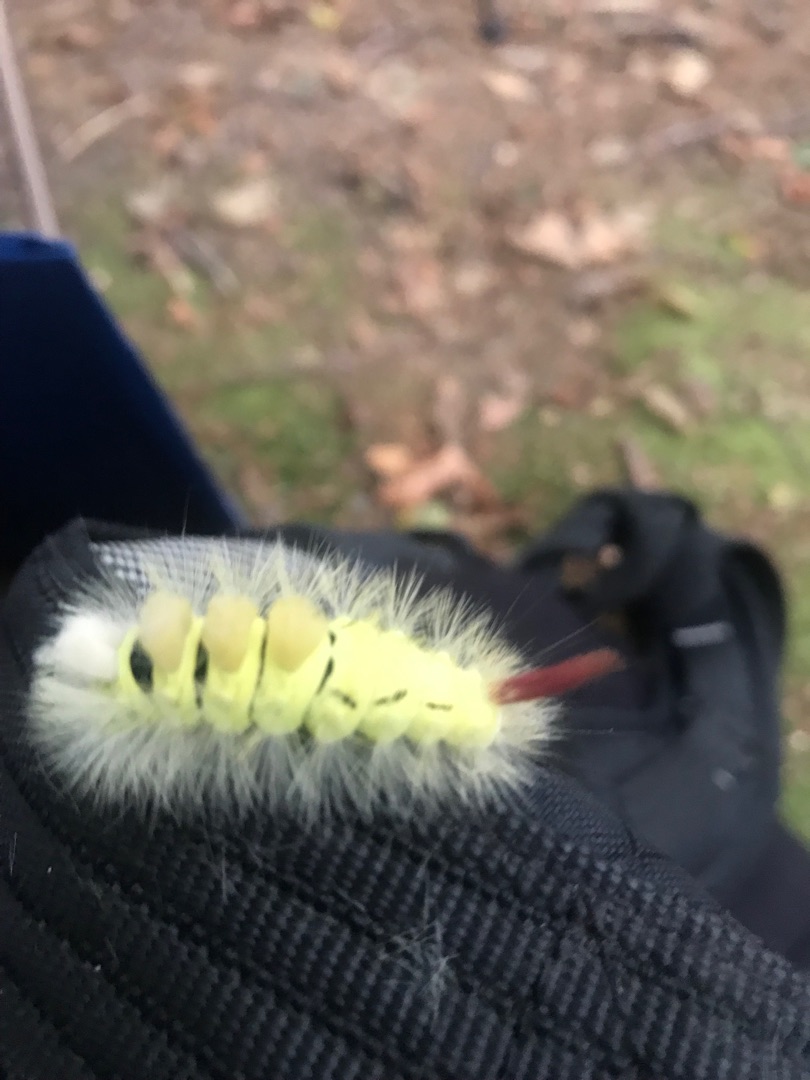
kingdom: Animalia
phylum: Arthropoda
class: Insecta
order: Lepidoptera
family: Erebidae
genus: Calliteara
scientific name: Calliteara pudibunda
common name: Bøgenonne
